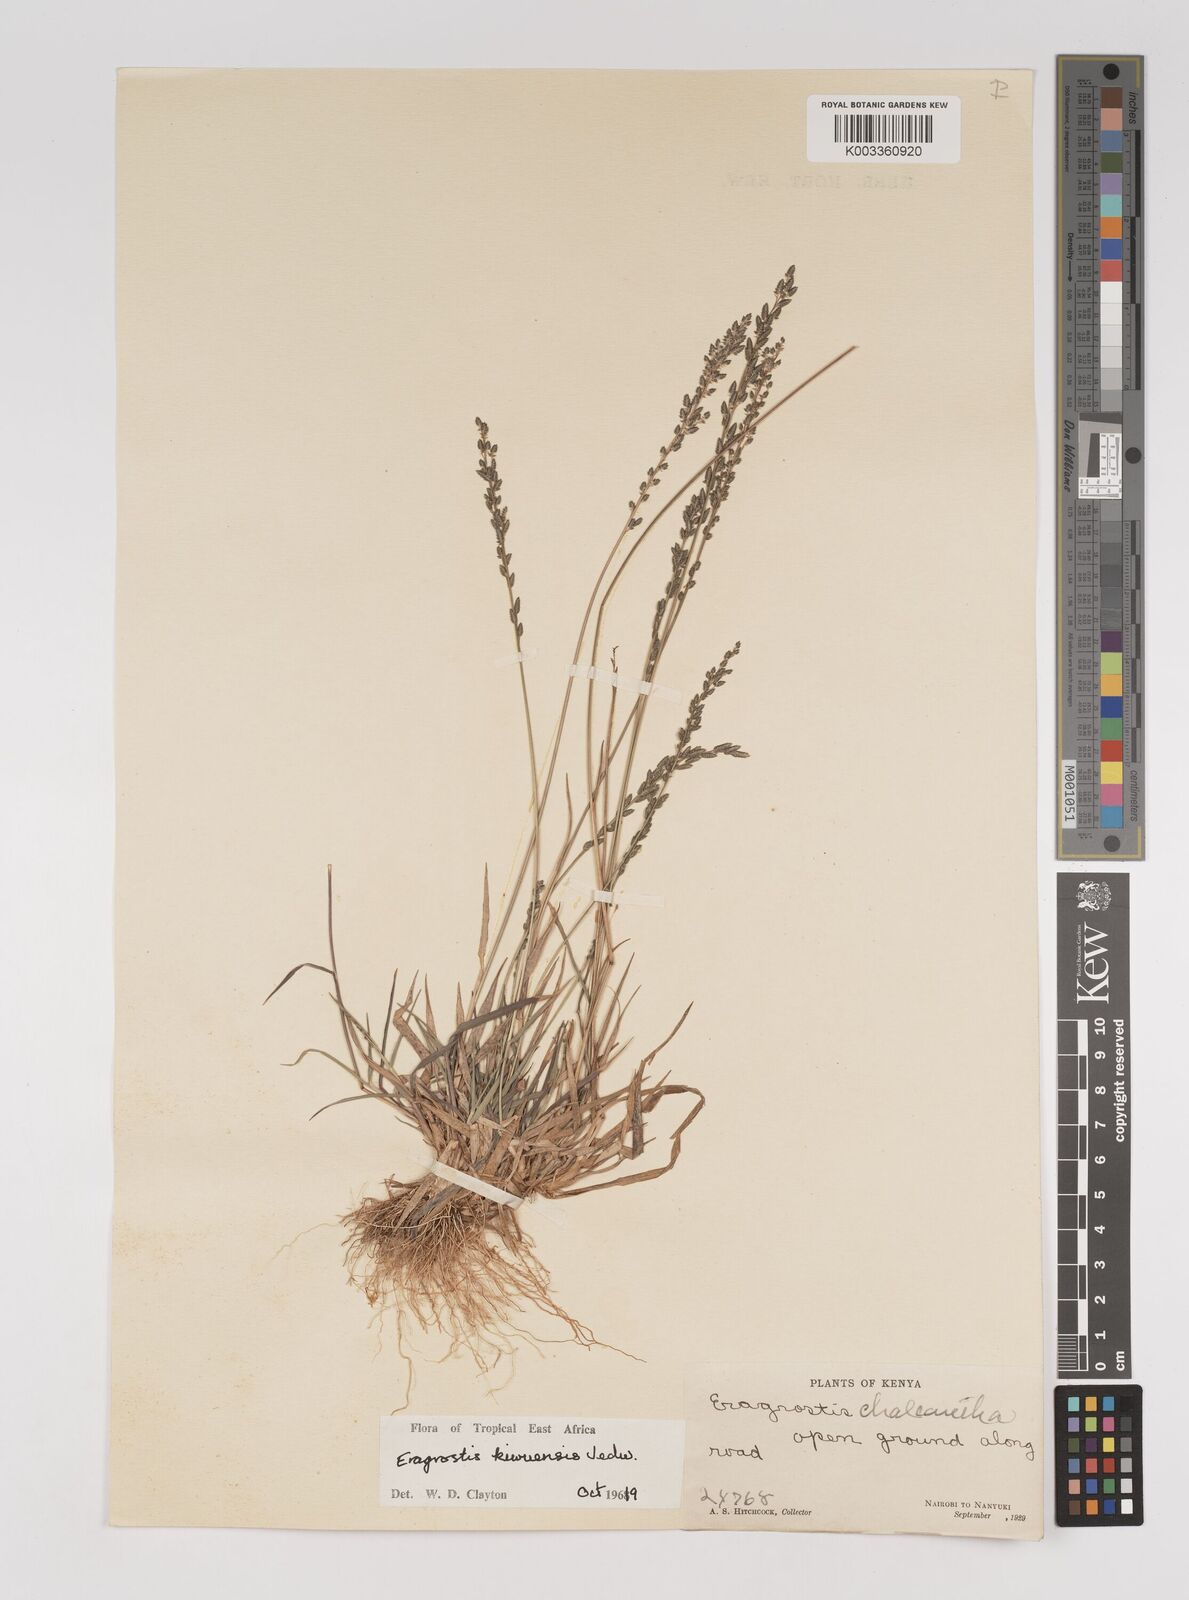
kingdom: Plantae
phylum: Tracheophyta
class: Liliopsida
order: Poales
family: Poaceae
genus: Eragrostis
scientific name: Eragrostis schweinfurthii
